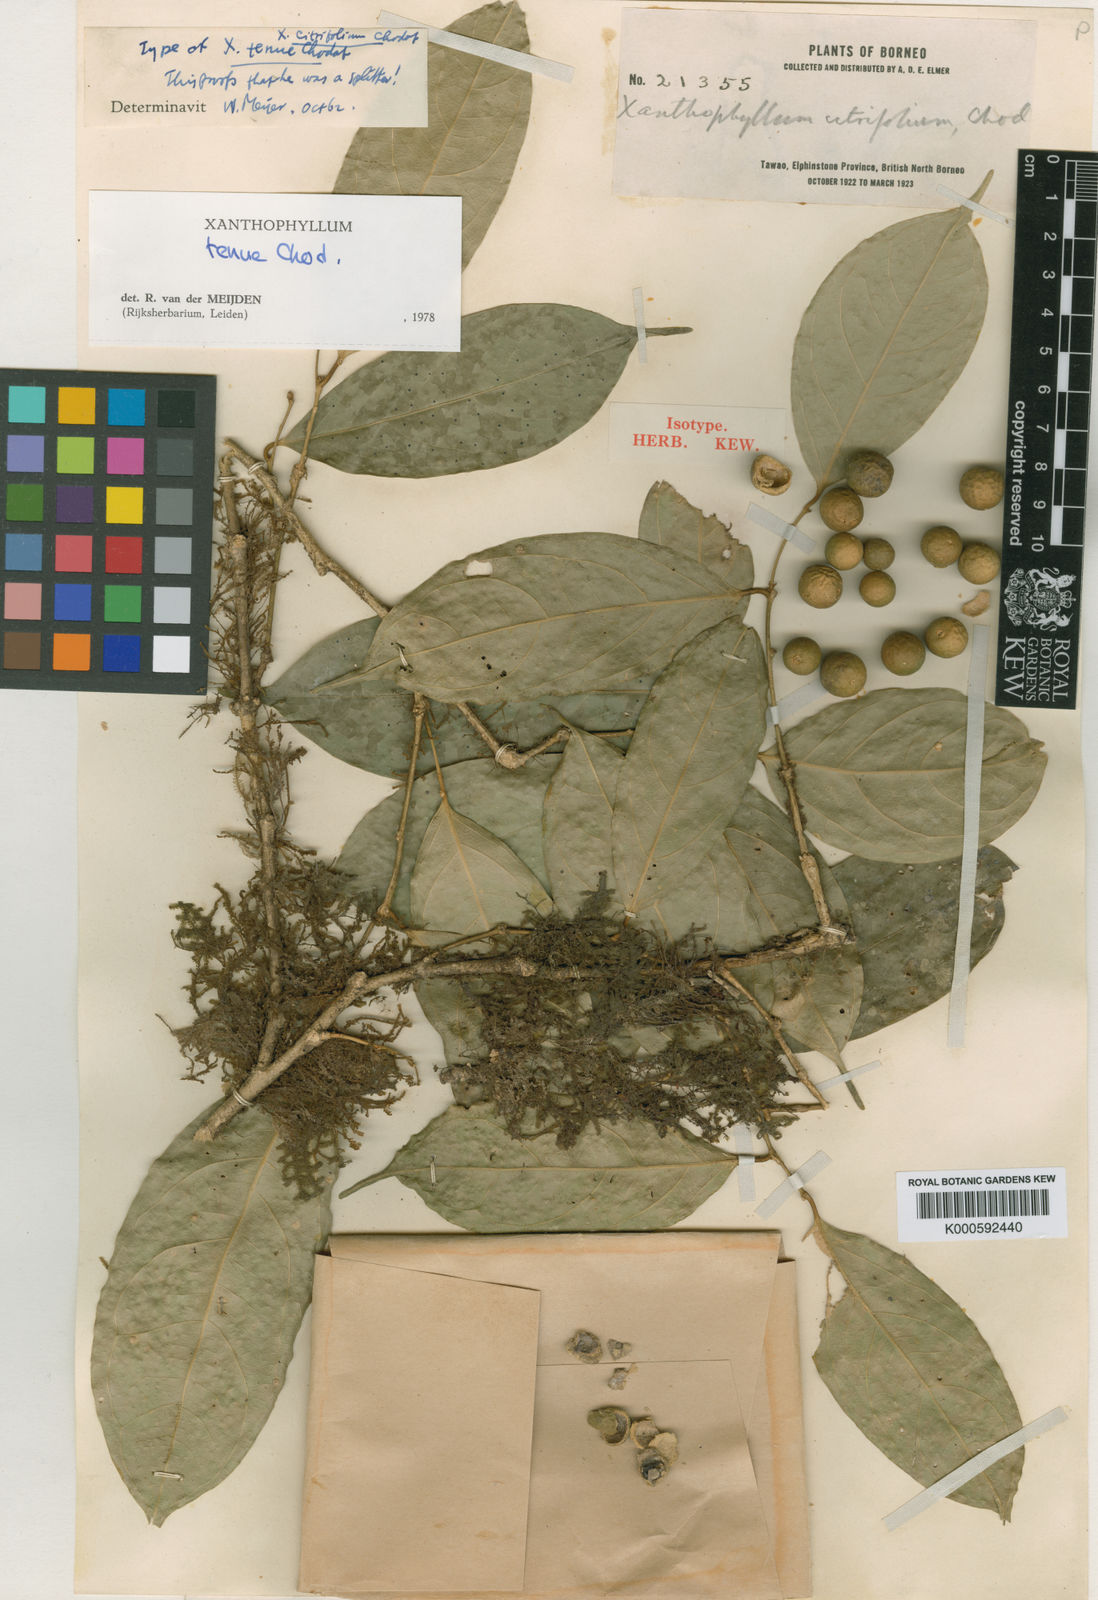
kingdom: Plantae
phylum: Tracheophyta
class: Magnoliopsida
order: Fabales
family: Polygalaceae
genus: Xanthophyllum
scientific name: Xanthophyllum tenue
